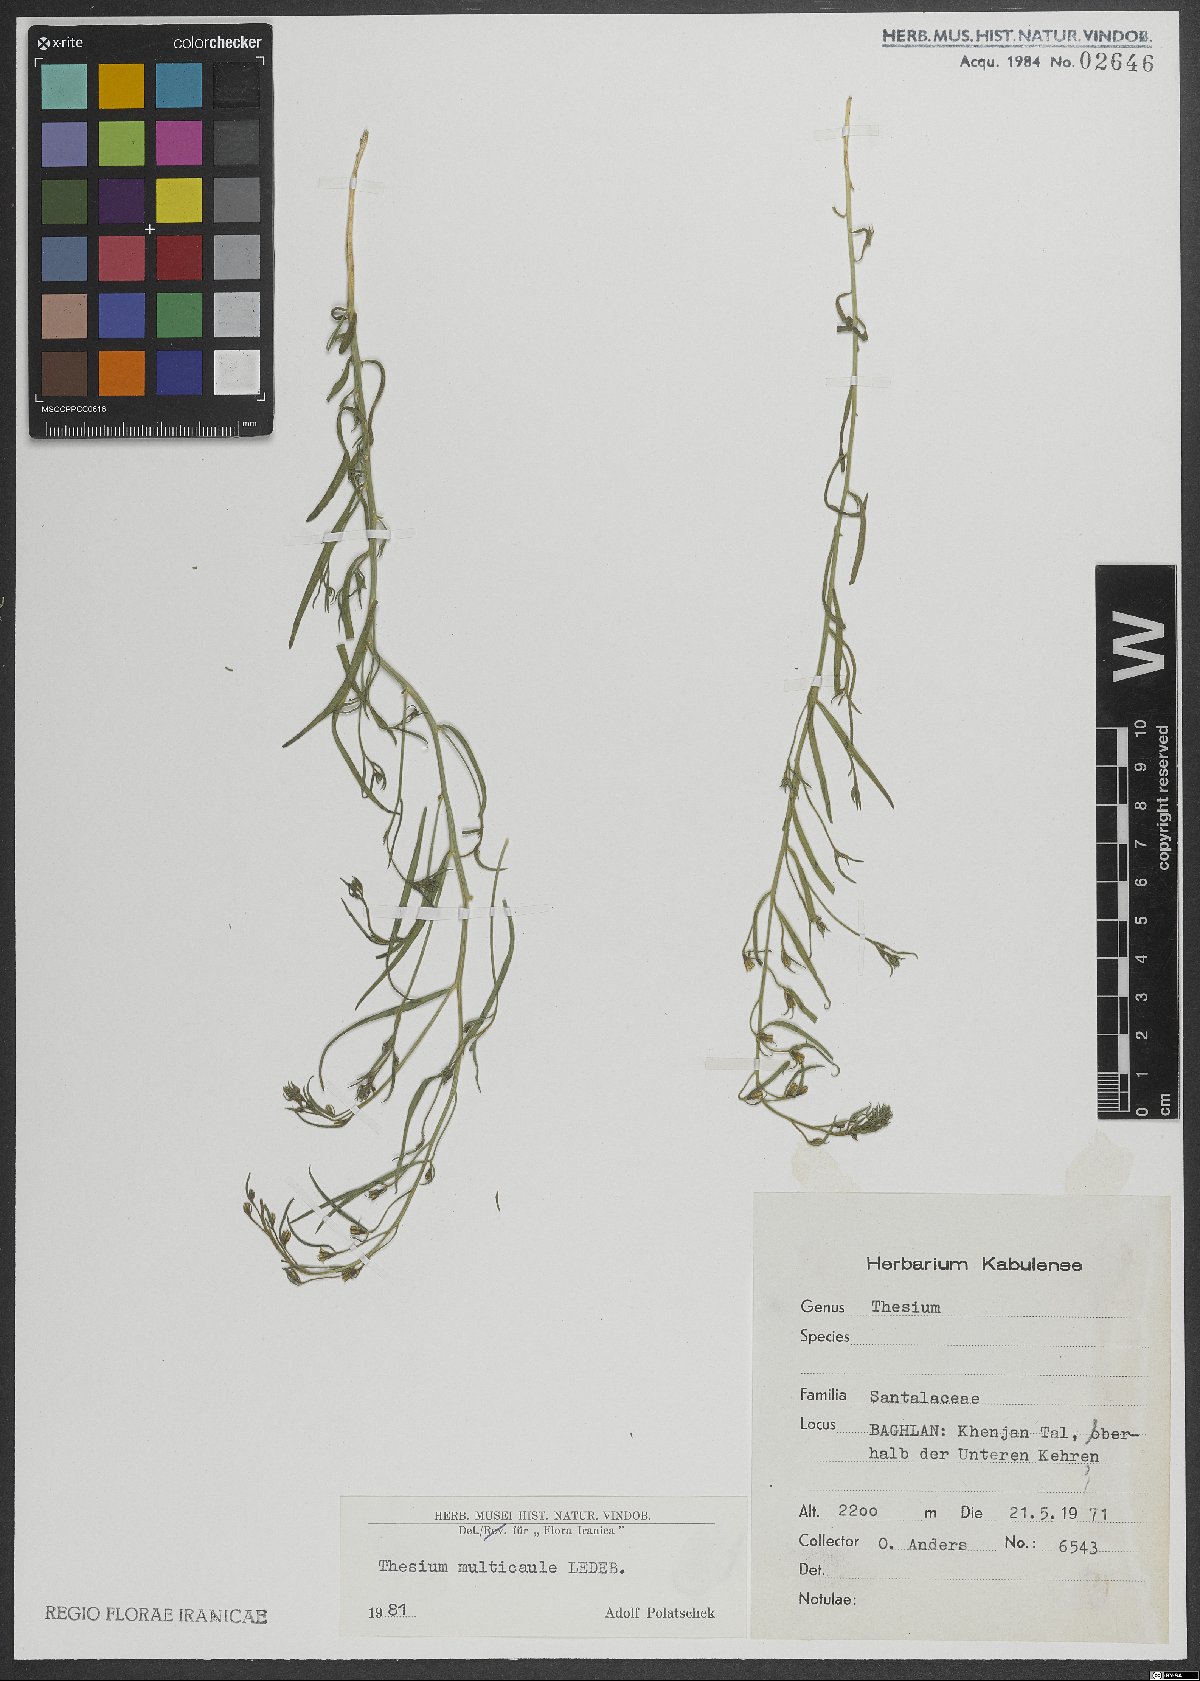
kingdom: Plantae
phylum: Tracheophyta
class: Magnoliopsida
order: Santalales
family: Thesiaceae
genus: Thesium
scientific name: Thesium multicaule
